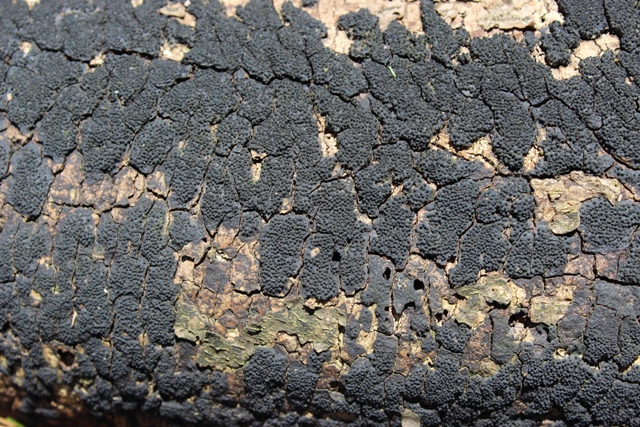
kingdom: Fungi
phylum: Ascomycota
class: Sordariomycetes
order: Xylariales
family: Diatrypaceae
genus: Eutypa
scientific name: Eutypa spinosa
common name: grov kulskorpe
